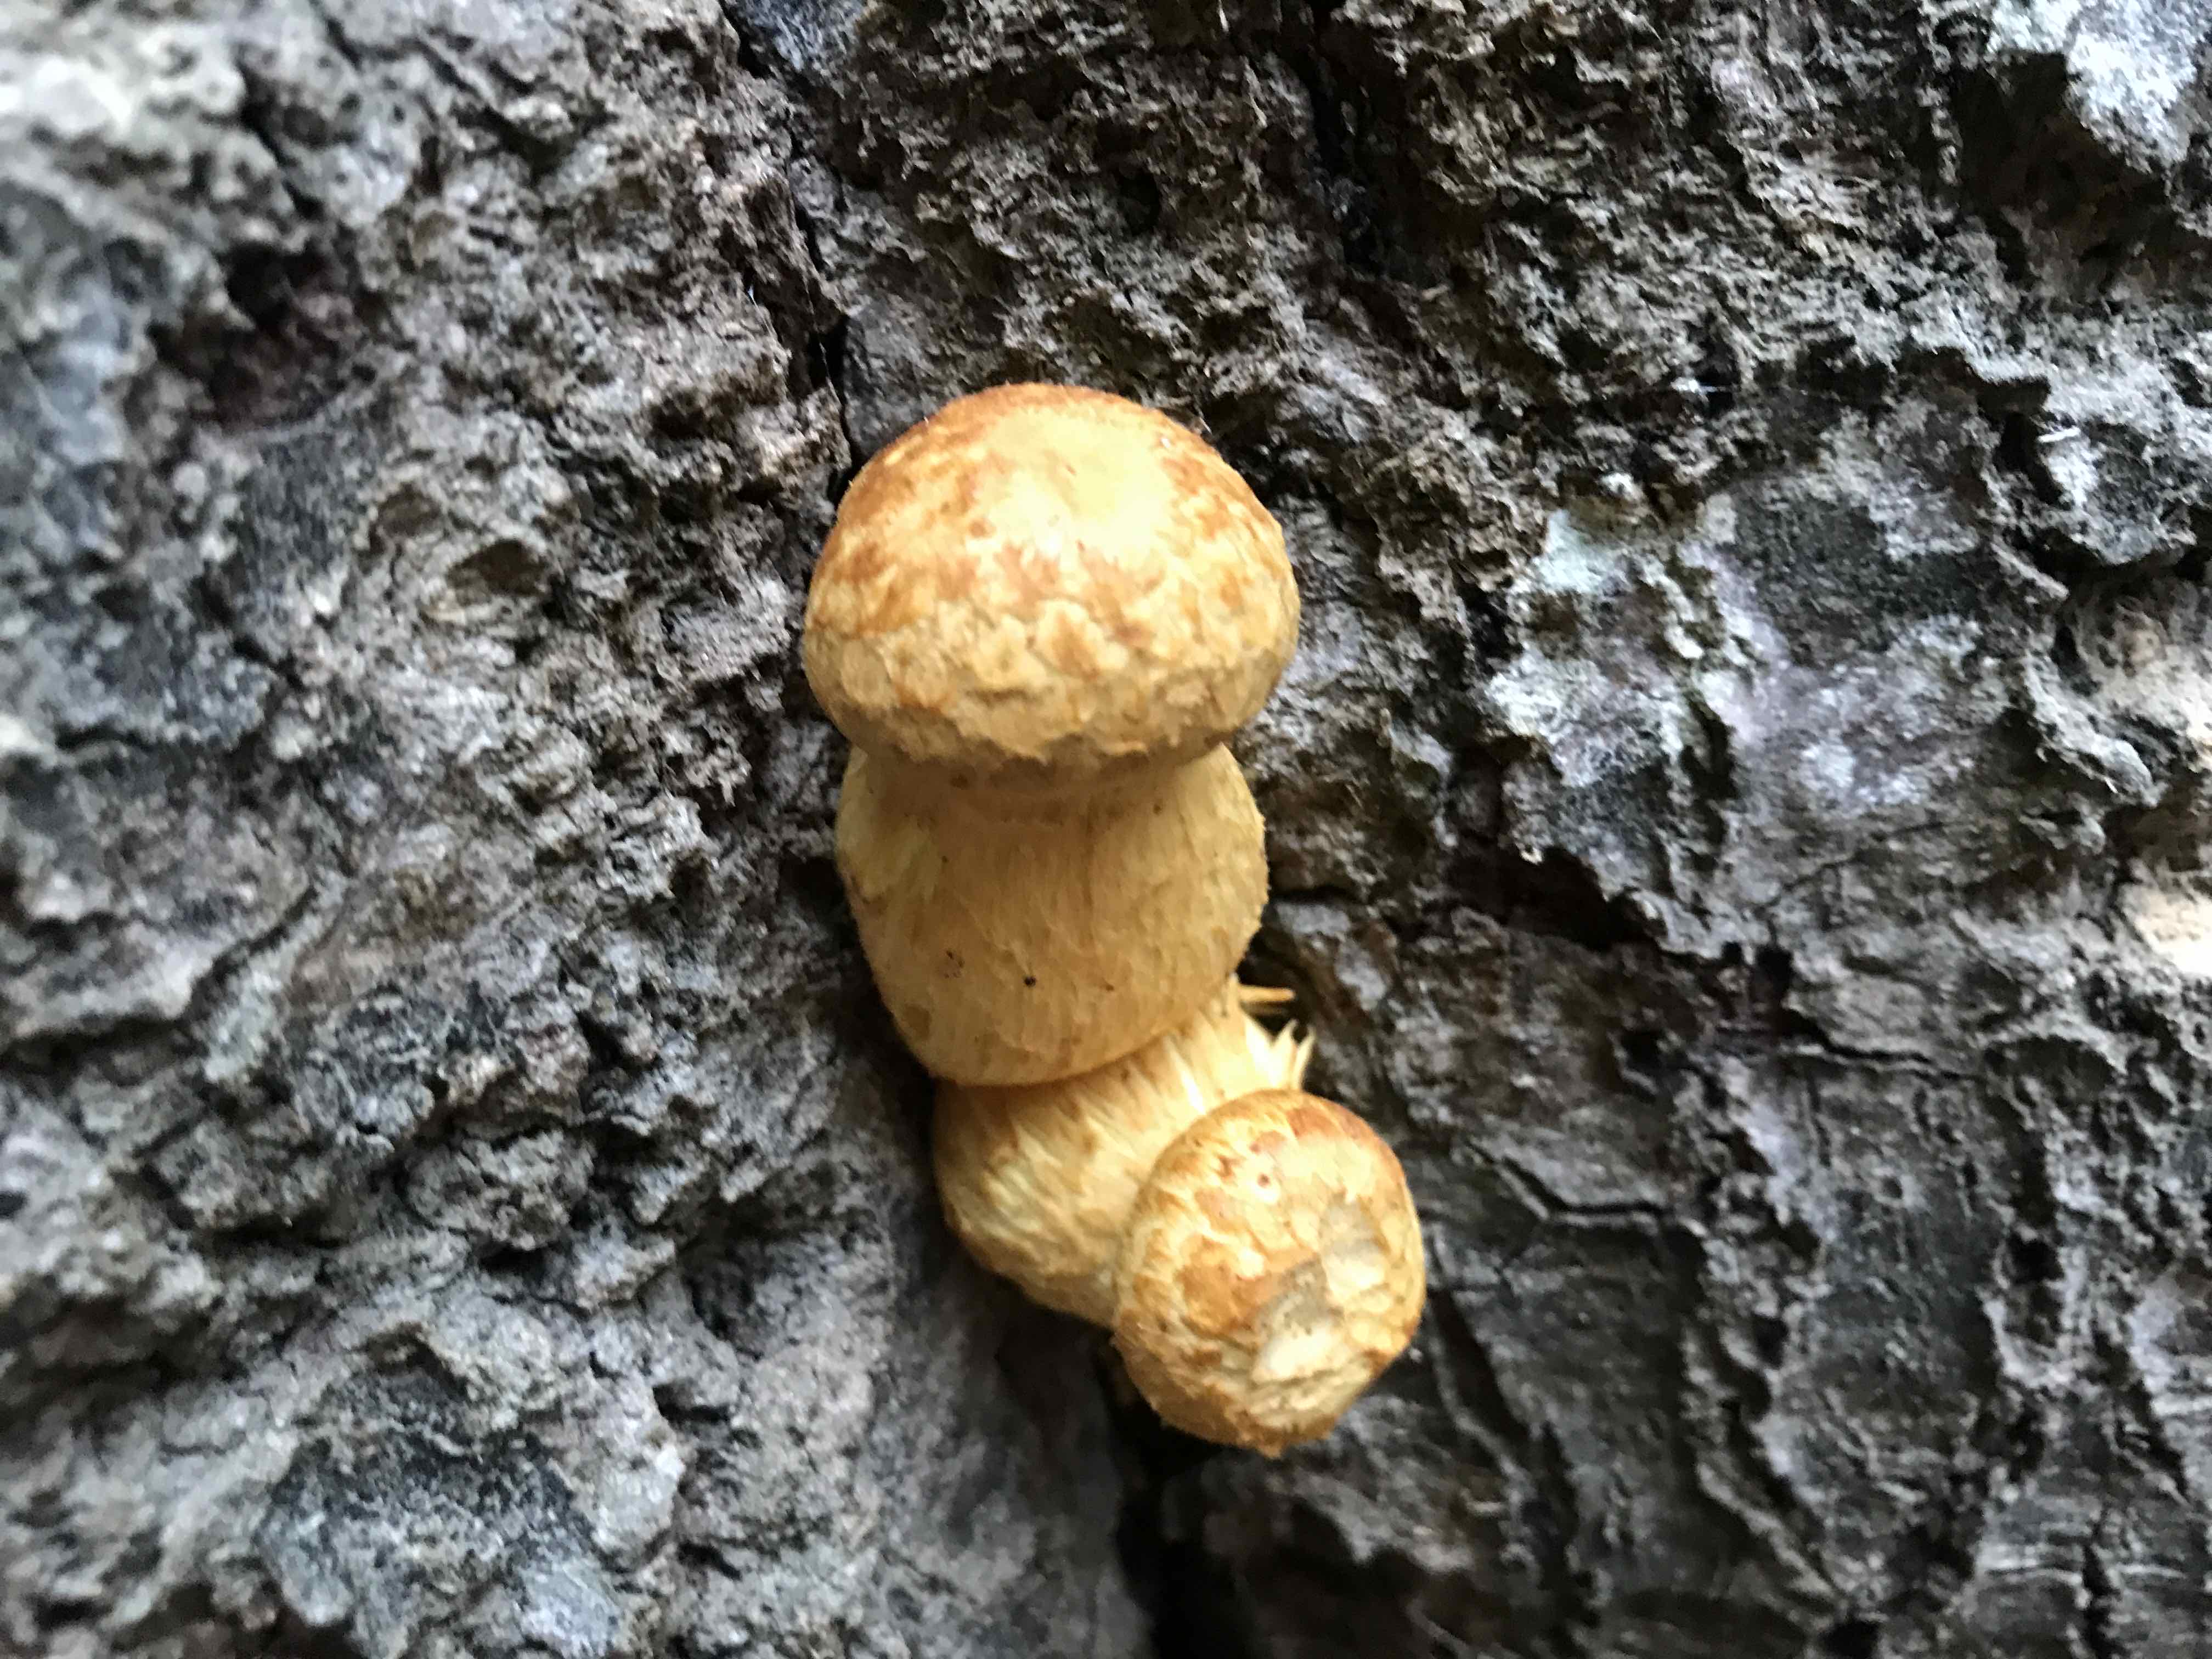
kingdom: Fungi
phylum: Basidiomycota
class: Agaricomycetes
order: Agaricales
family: Hymenogastraceae
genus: Gymnopilus
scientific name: Gymnopilus spectabilis
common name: fibret flammehat
